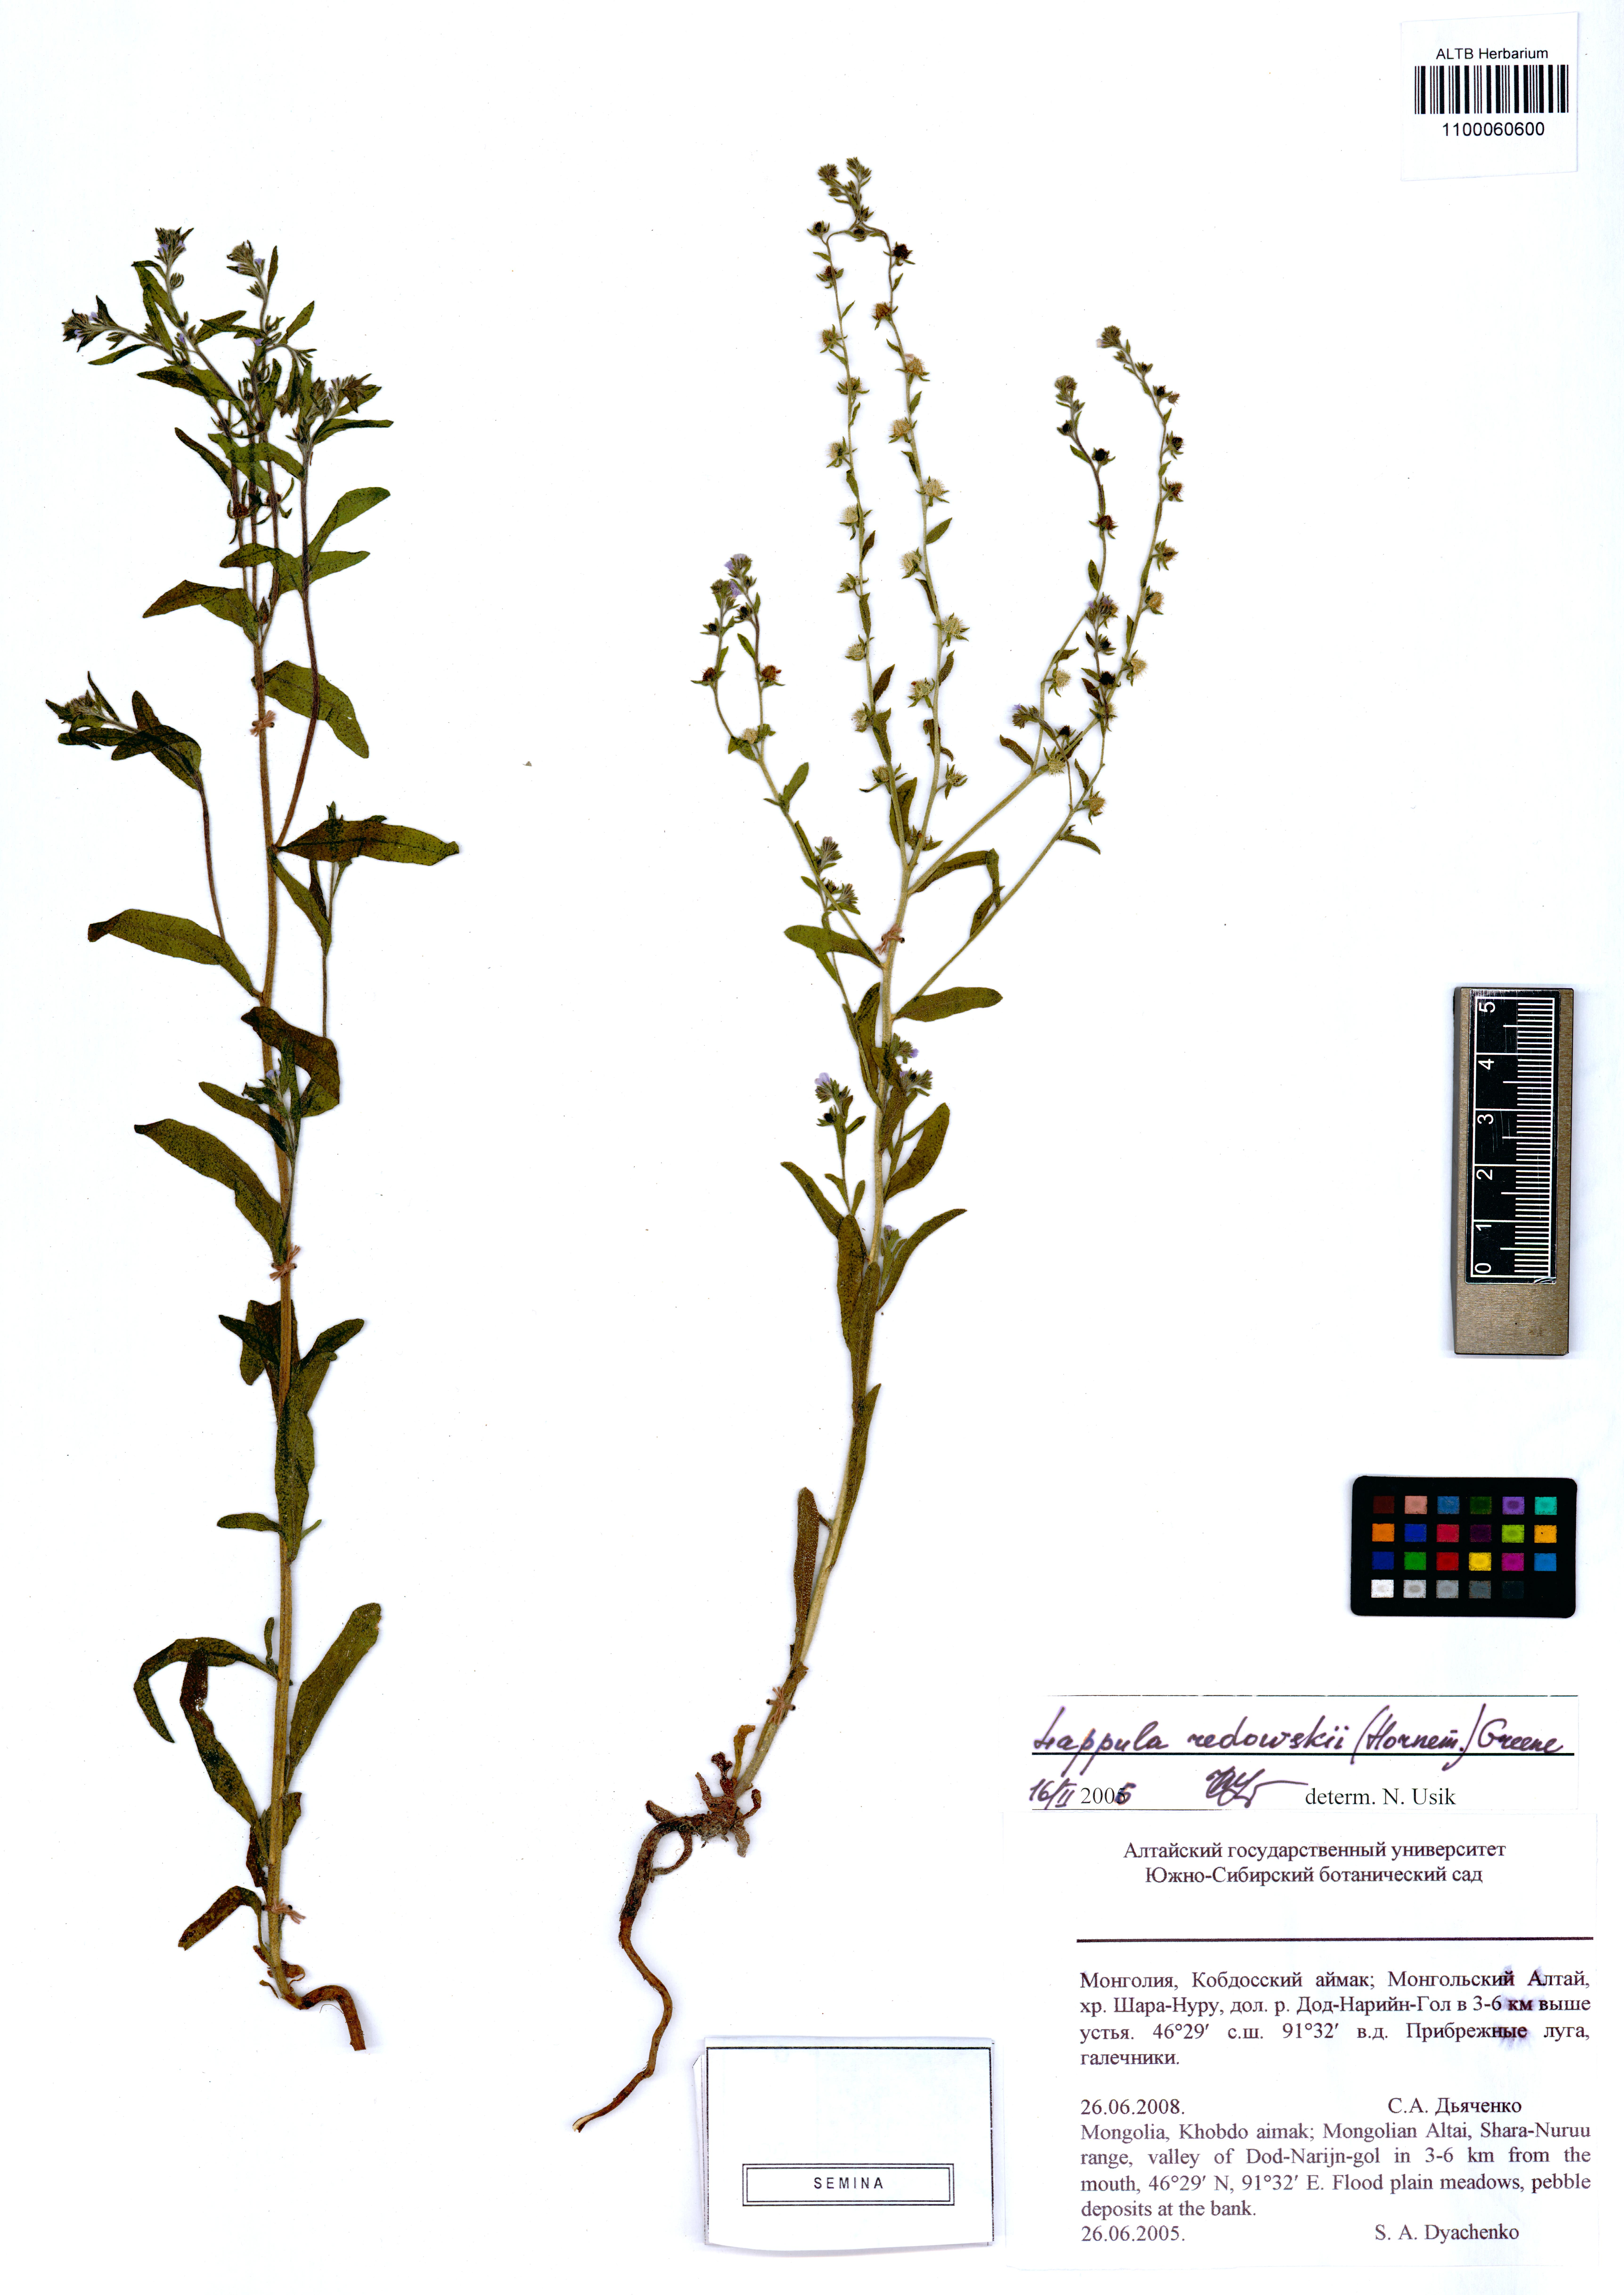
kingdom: Plantae
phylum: Tracheophyta
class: Magnoliopsida
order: Boraginales
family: Boraginaceae
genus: Lappula
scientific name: Lappula redowskii
